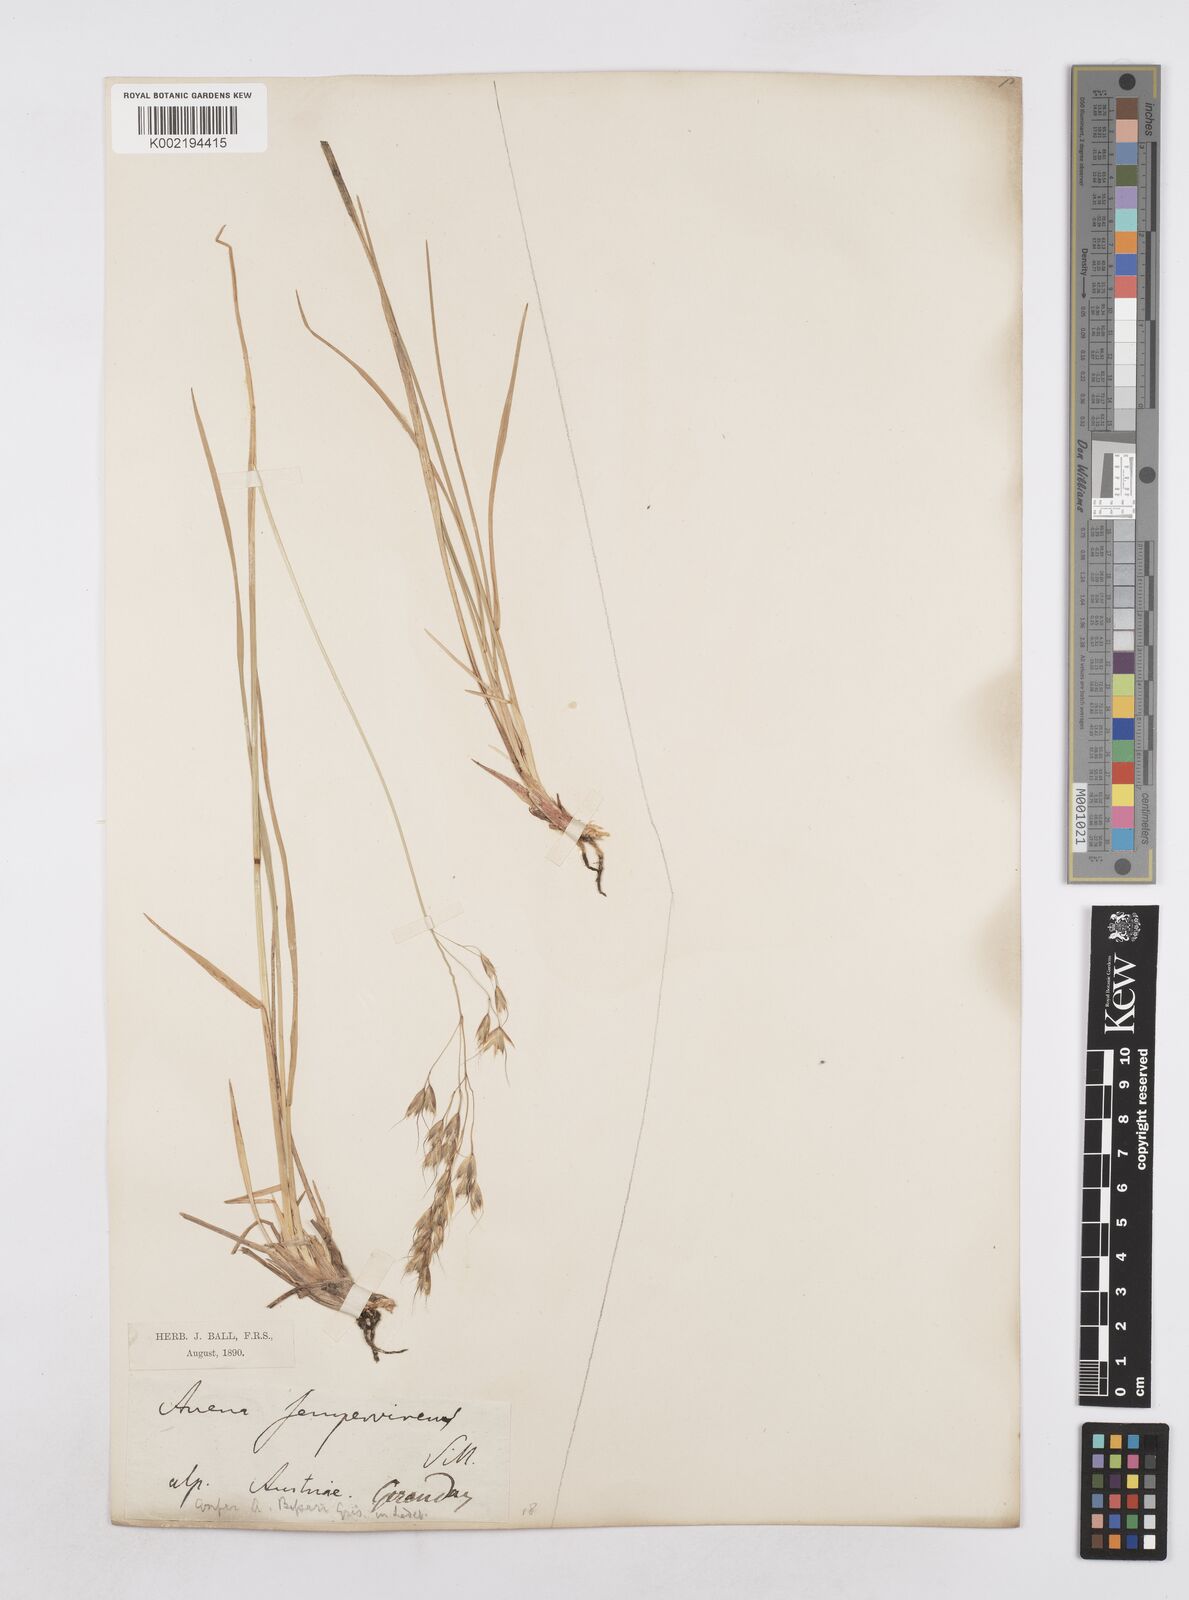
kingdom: Plantae
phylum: Tracheophyta
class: Liliopsida
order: Poales
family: Poaceae
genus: Helictotrichon
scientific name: Helictotrichon sempervirens
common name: Blue oat-grass
